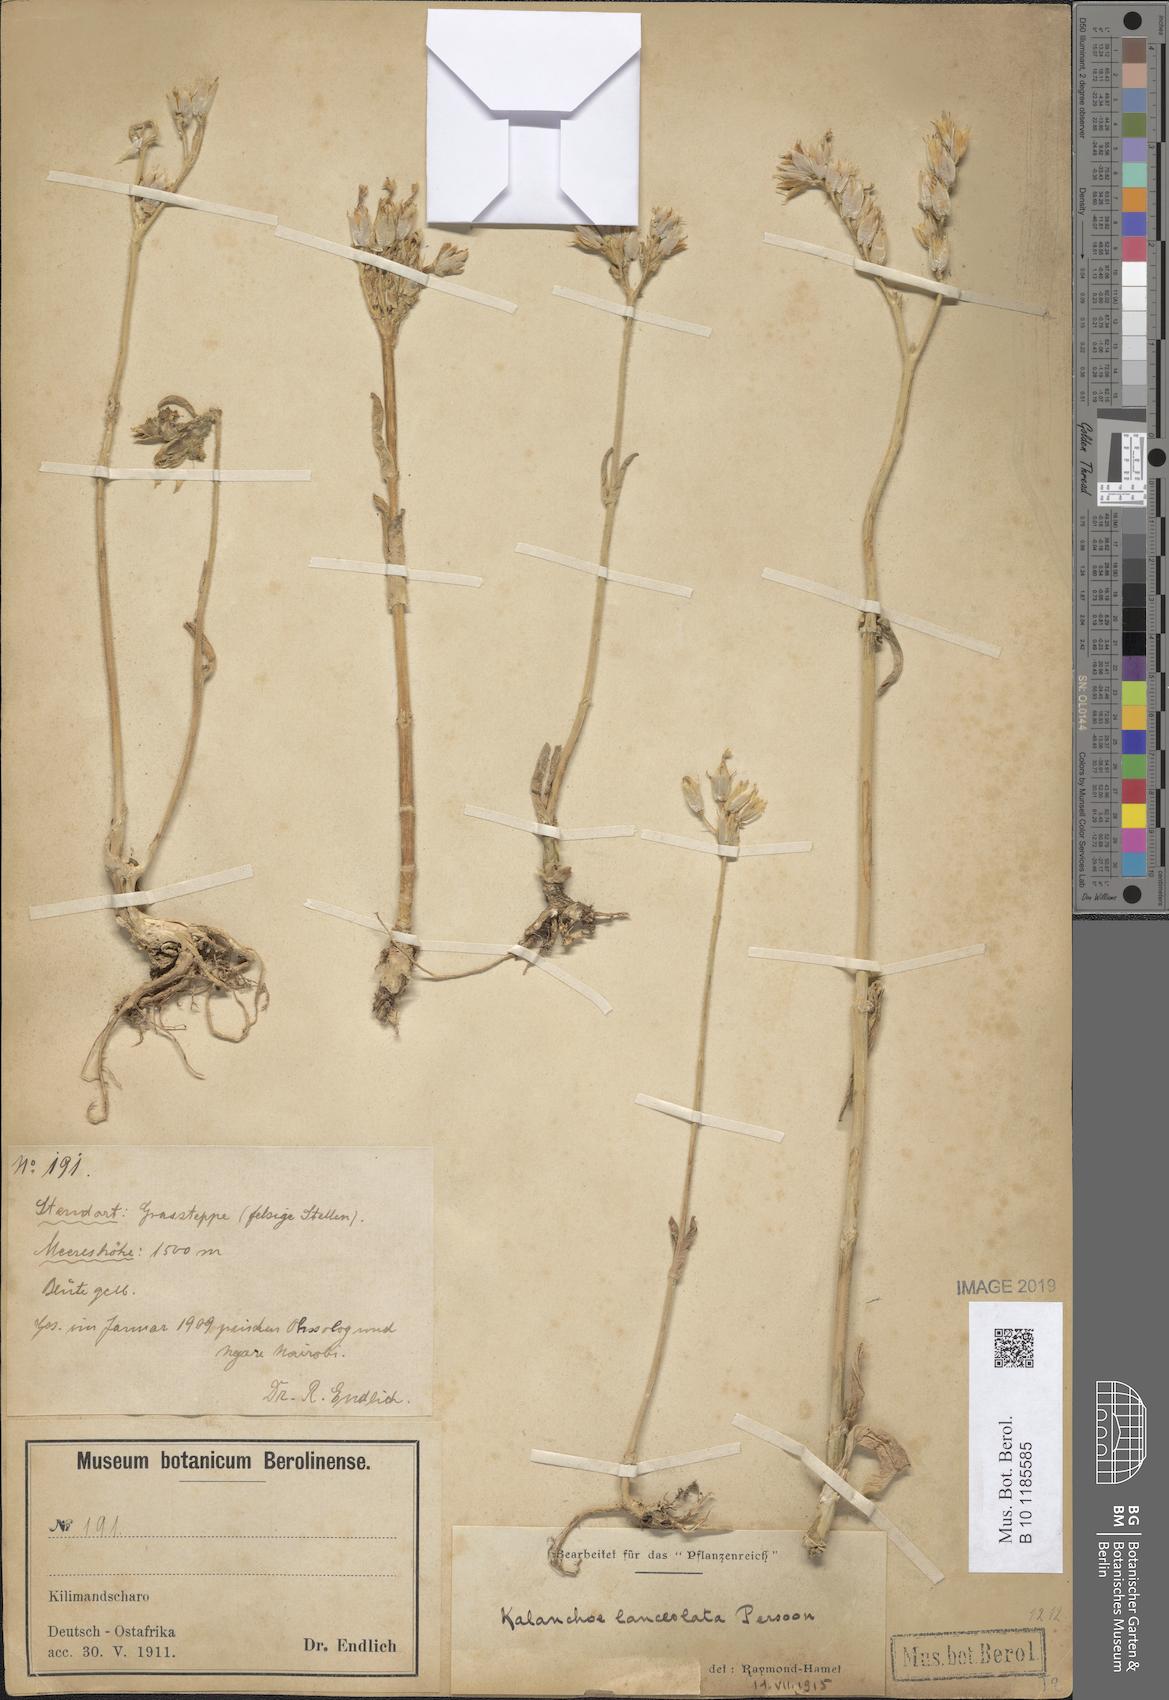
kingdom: Plantae
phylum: Tracheophyta
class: Magnoliopsida
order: Saxifragales
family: Crassulaceae
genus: Kalanchoe
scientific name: Kalanchoe lanceolata
